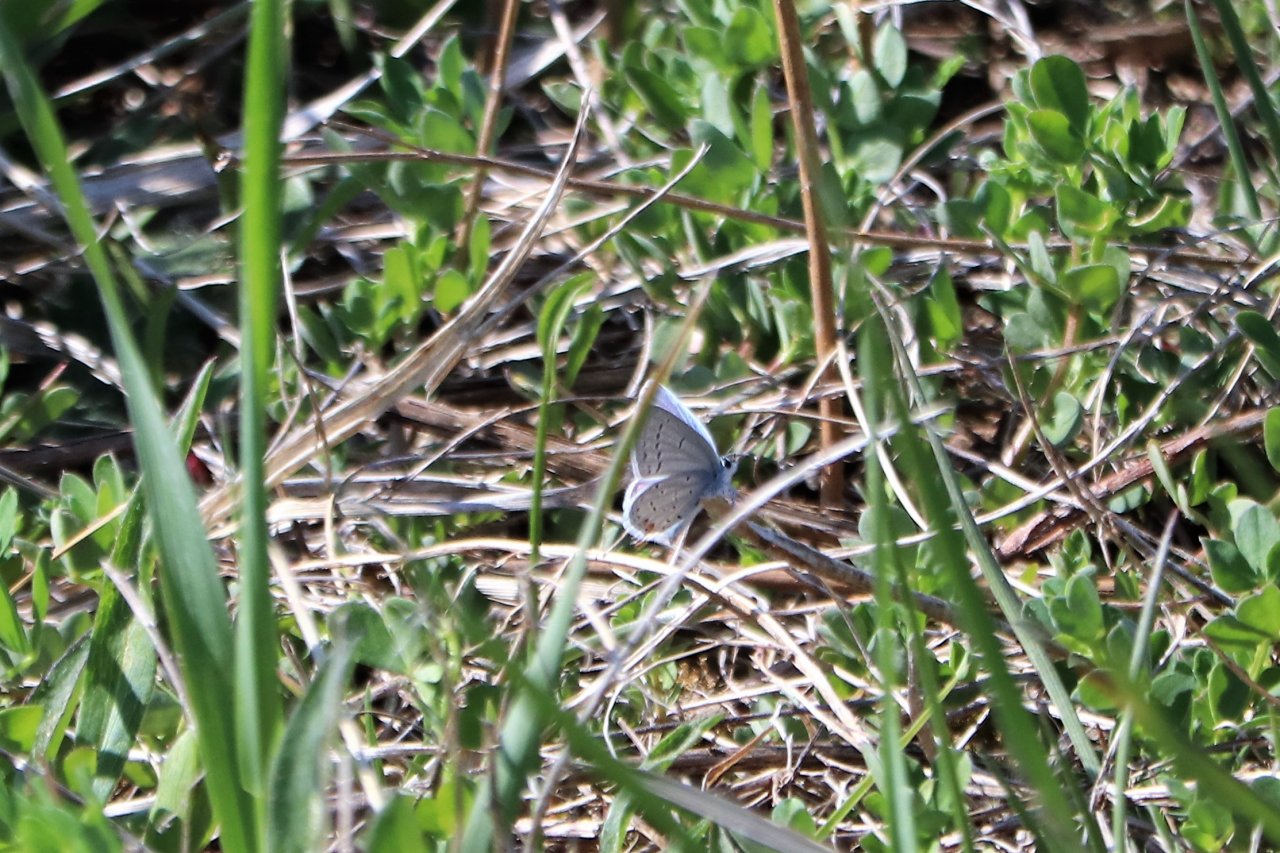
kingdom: Animalia
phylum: Arthropoda
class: Insecta
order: Lepidoptera
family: Lycaenidae
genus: Elkalyce
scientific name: Elkalyce comyntas
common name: Eastern Tailed-Blue
